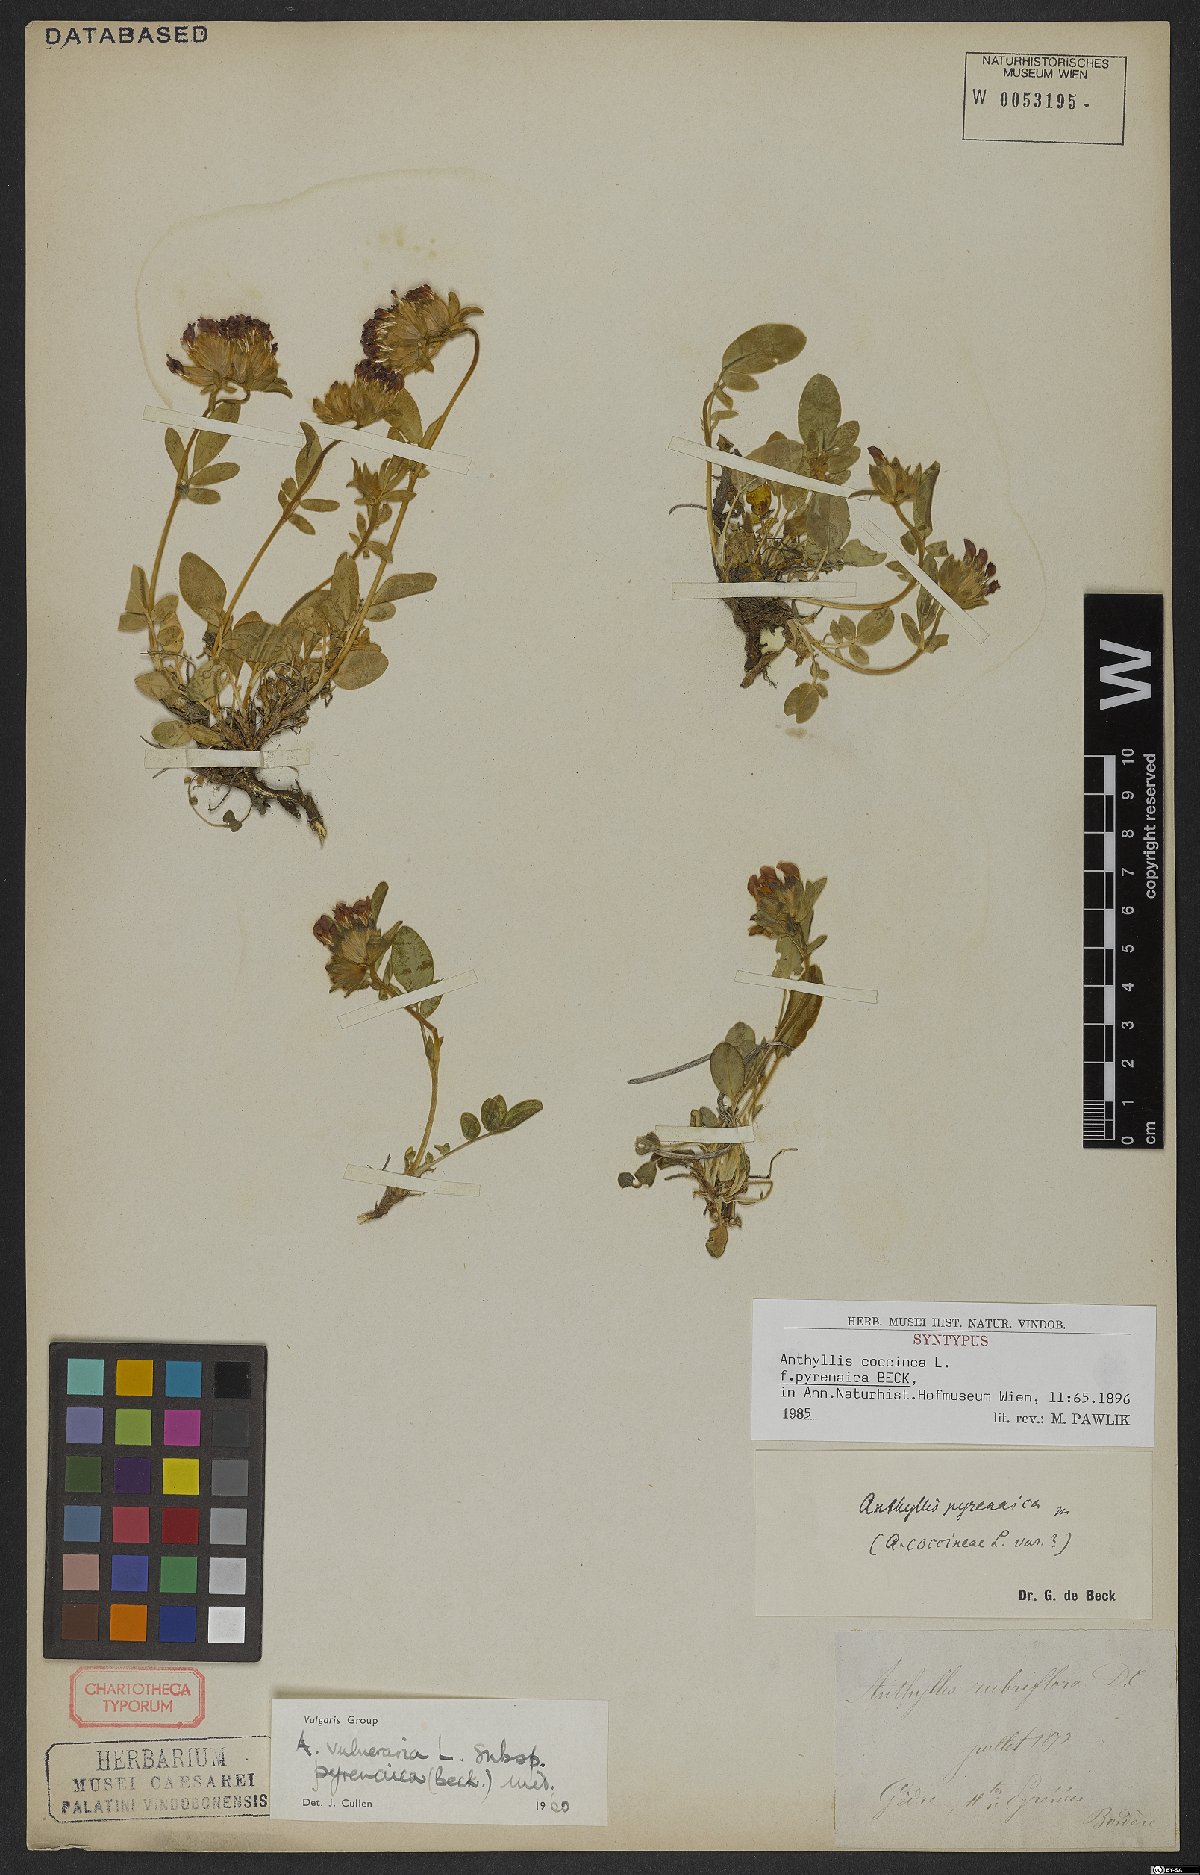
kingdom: Plantae
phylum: Tracheophyta
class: Magnoliopsida
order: Fabales
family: Fabaceae
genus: Anthyllis
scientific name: Anthyllis vulneraria
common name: Kidney vetch
